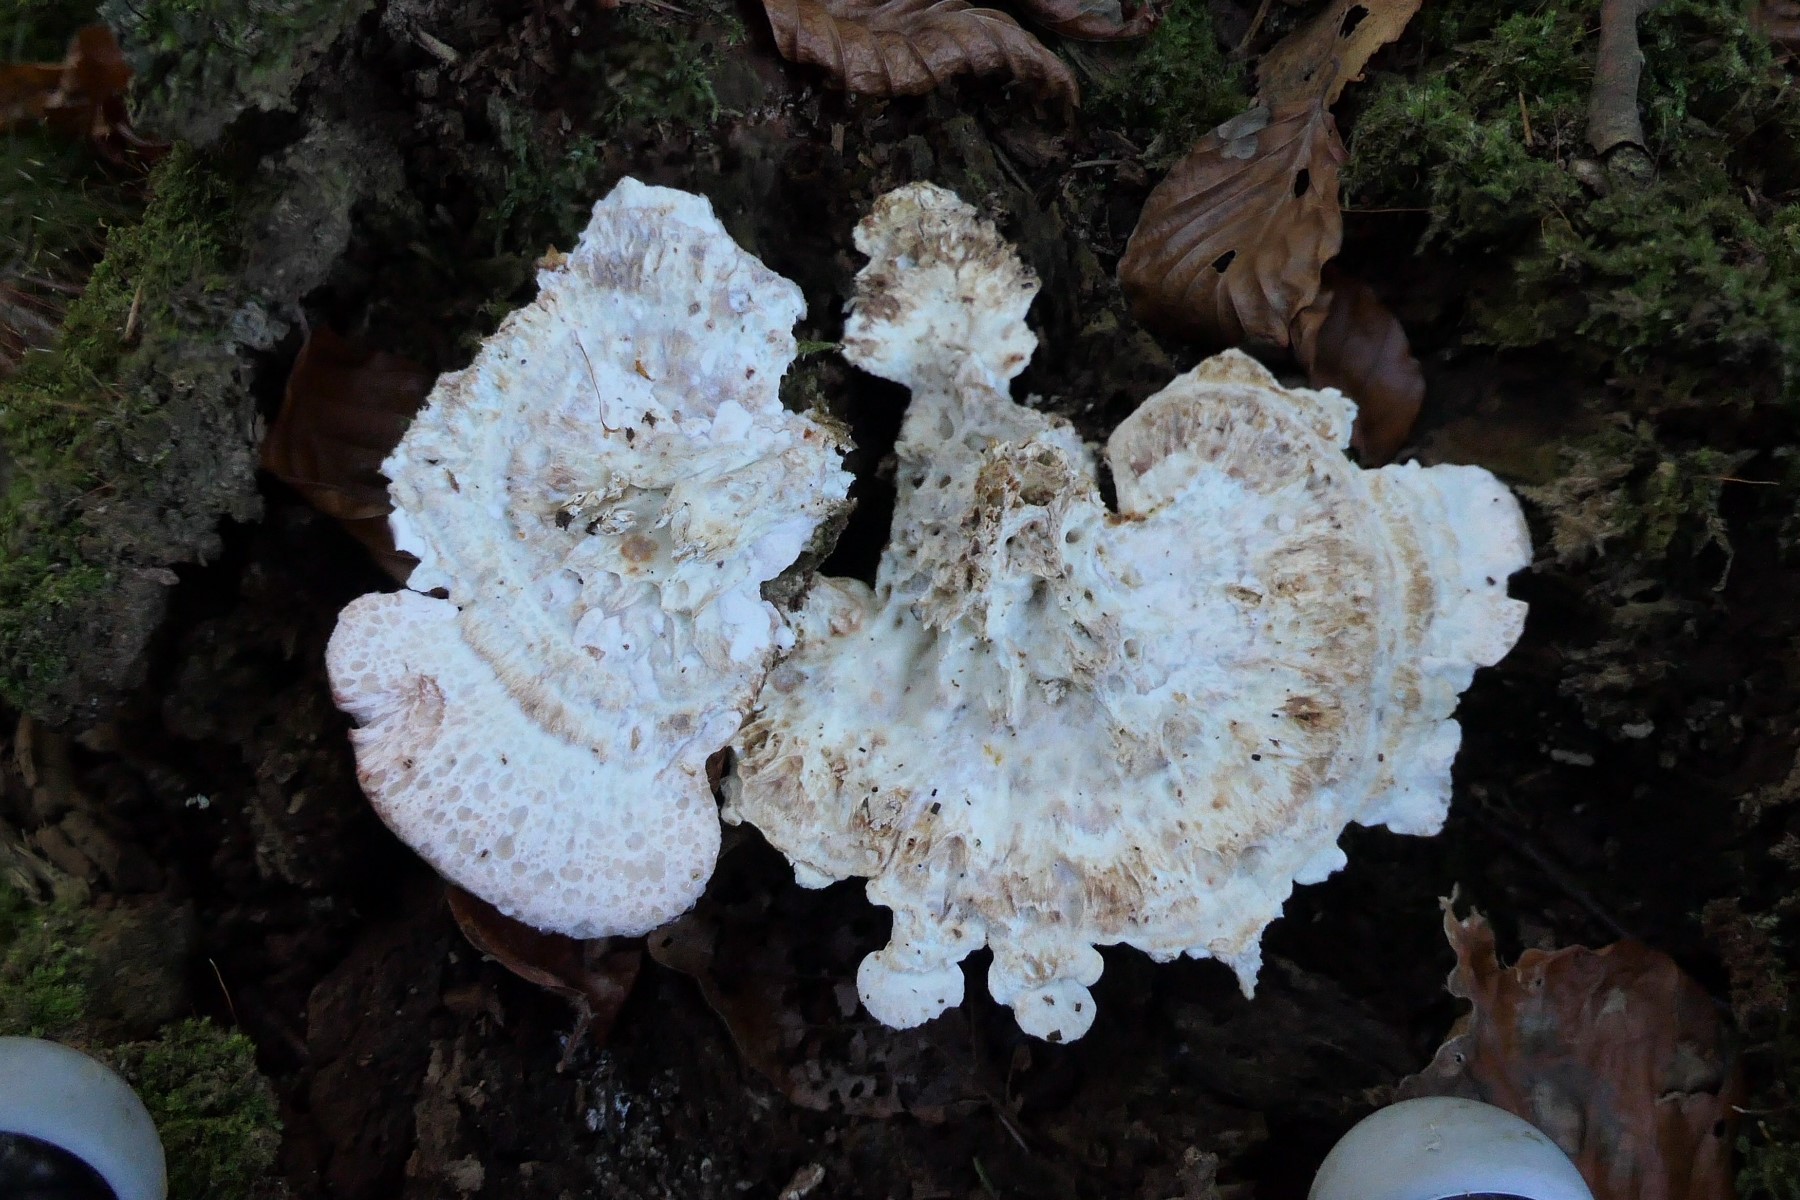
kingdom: Fungi
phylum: Basidiomycota
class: Agaricomycetes
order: Polyporales
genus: Calcipostia
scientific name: Calcipostia guttulata
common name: dråbe-kødporesvamp
